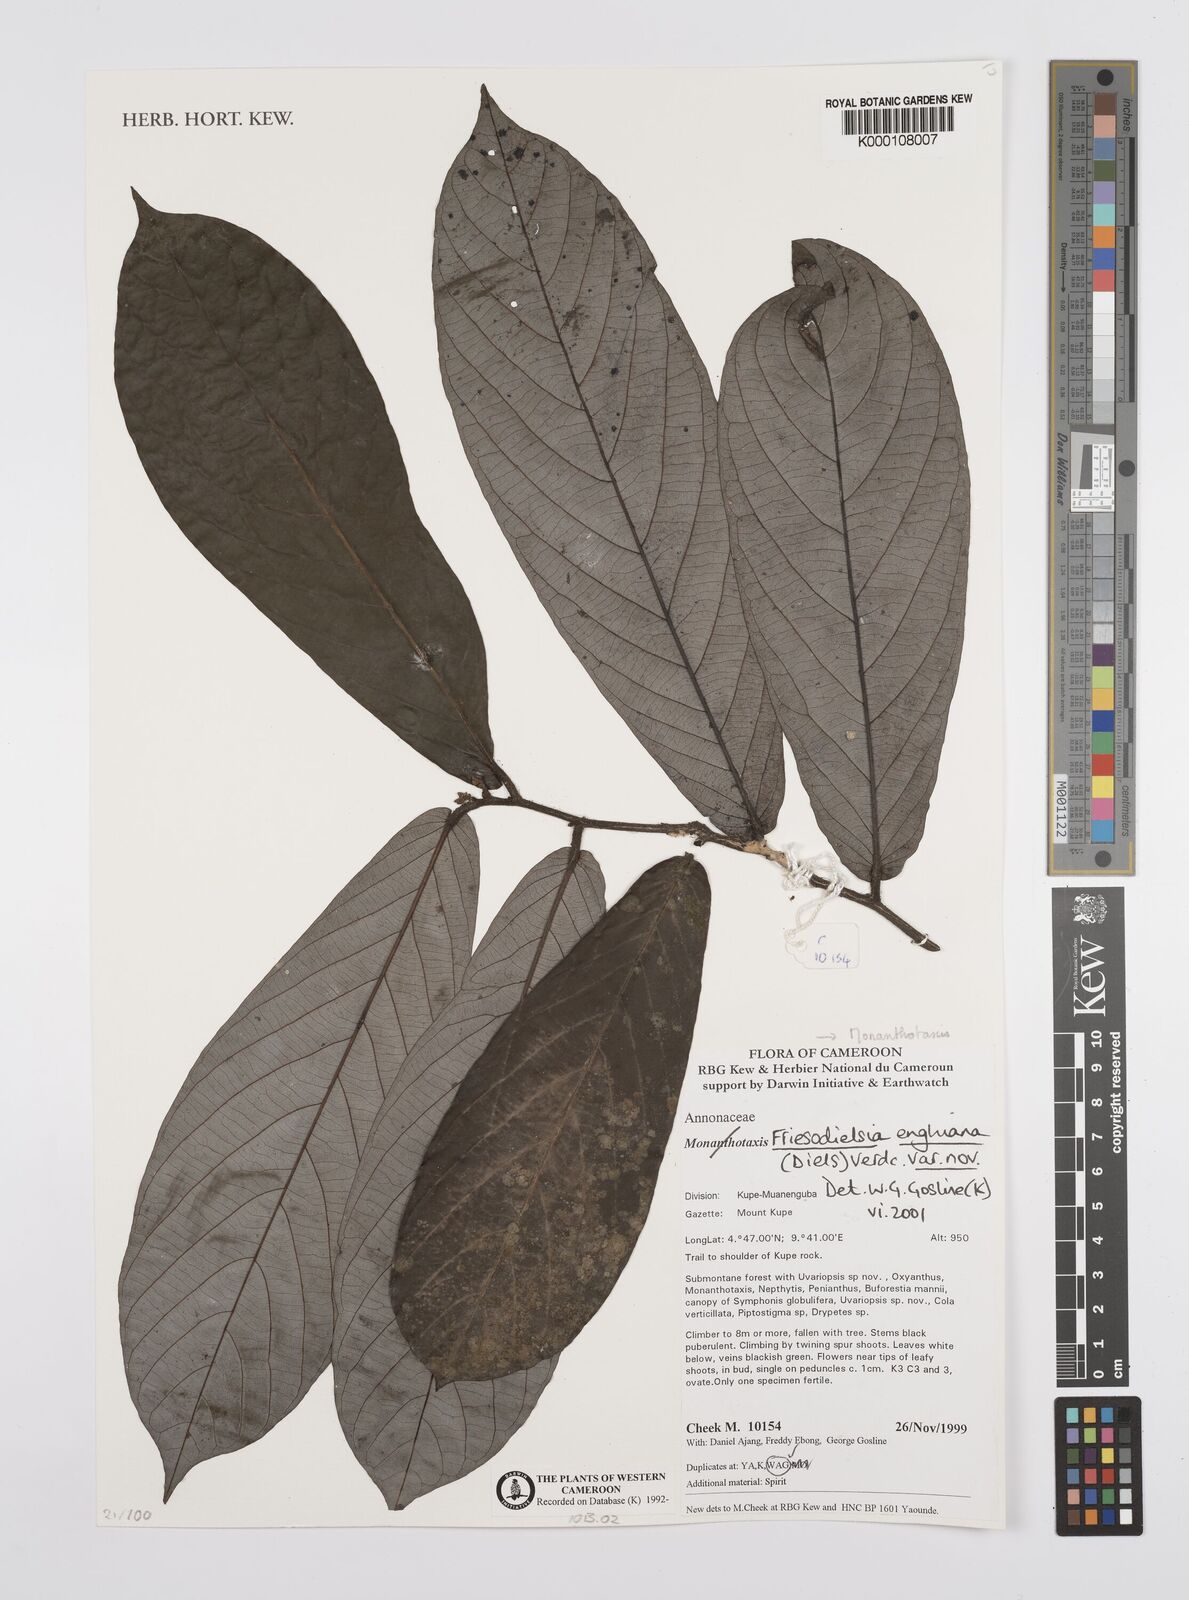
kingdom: Plantae
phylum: Tracheophyta
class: Magnoliopsida
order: Magnoliales
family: Annonaceae
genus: Friesodielsia
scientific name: Friesodielsia enghiana
